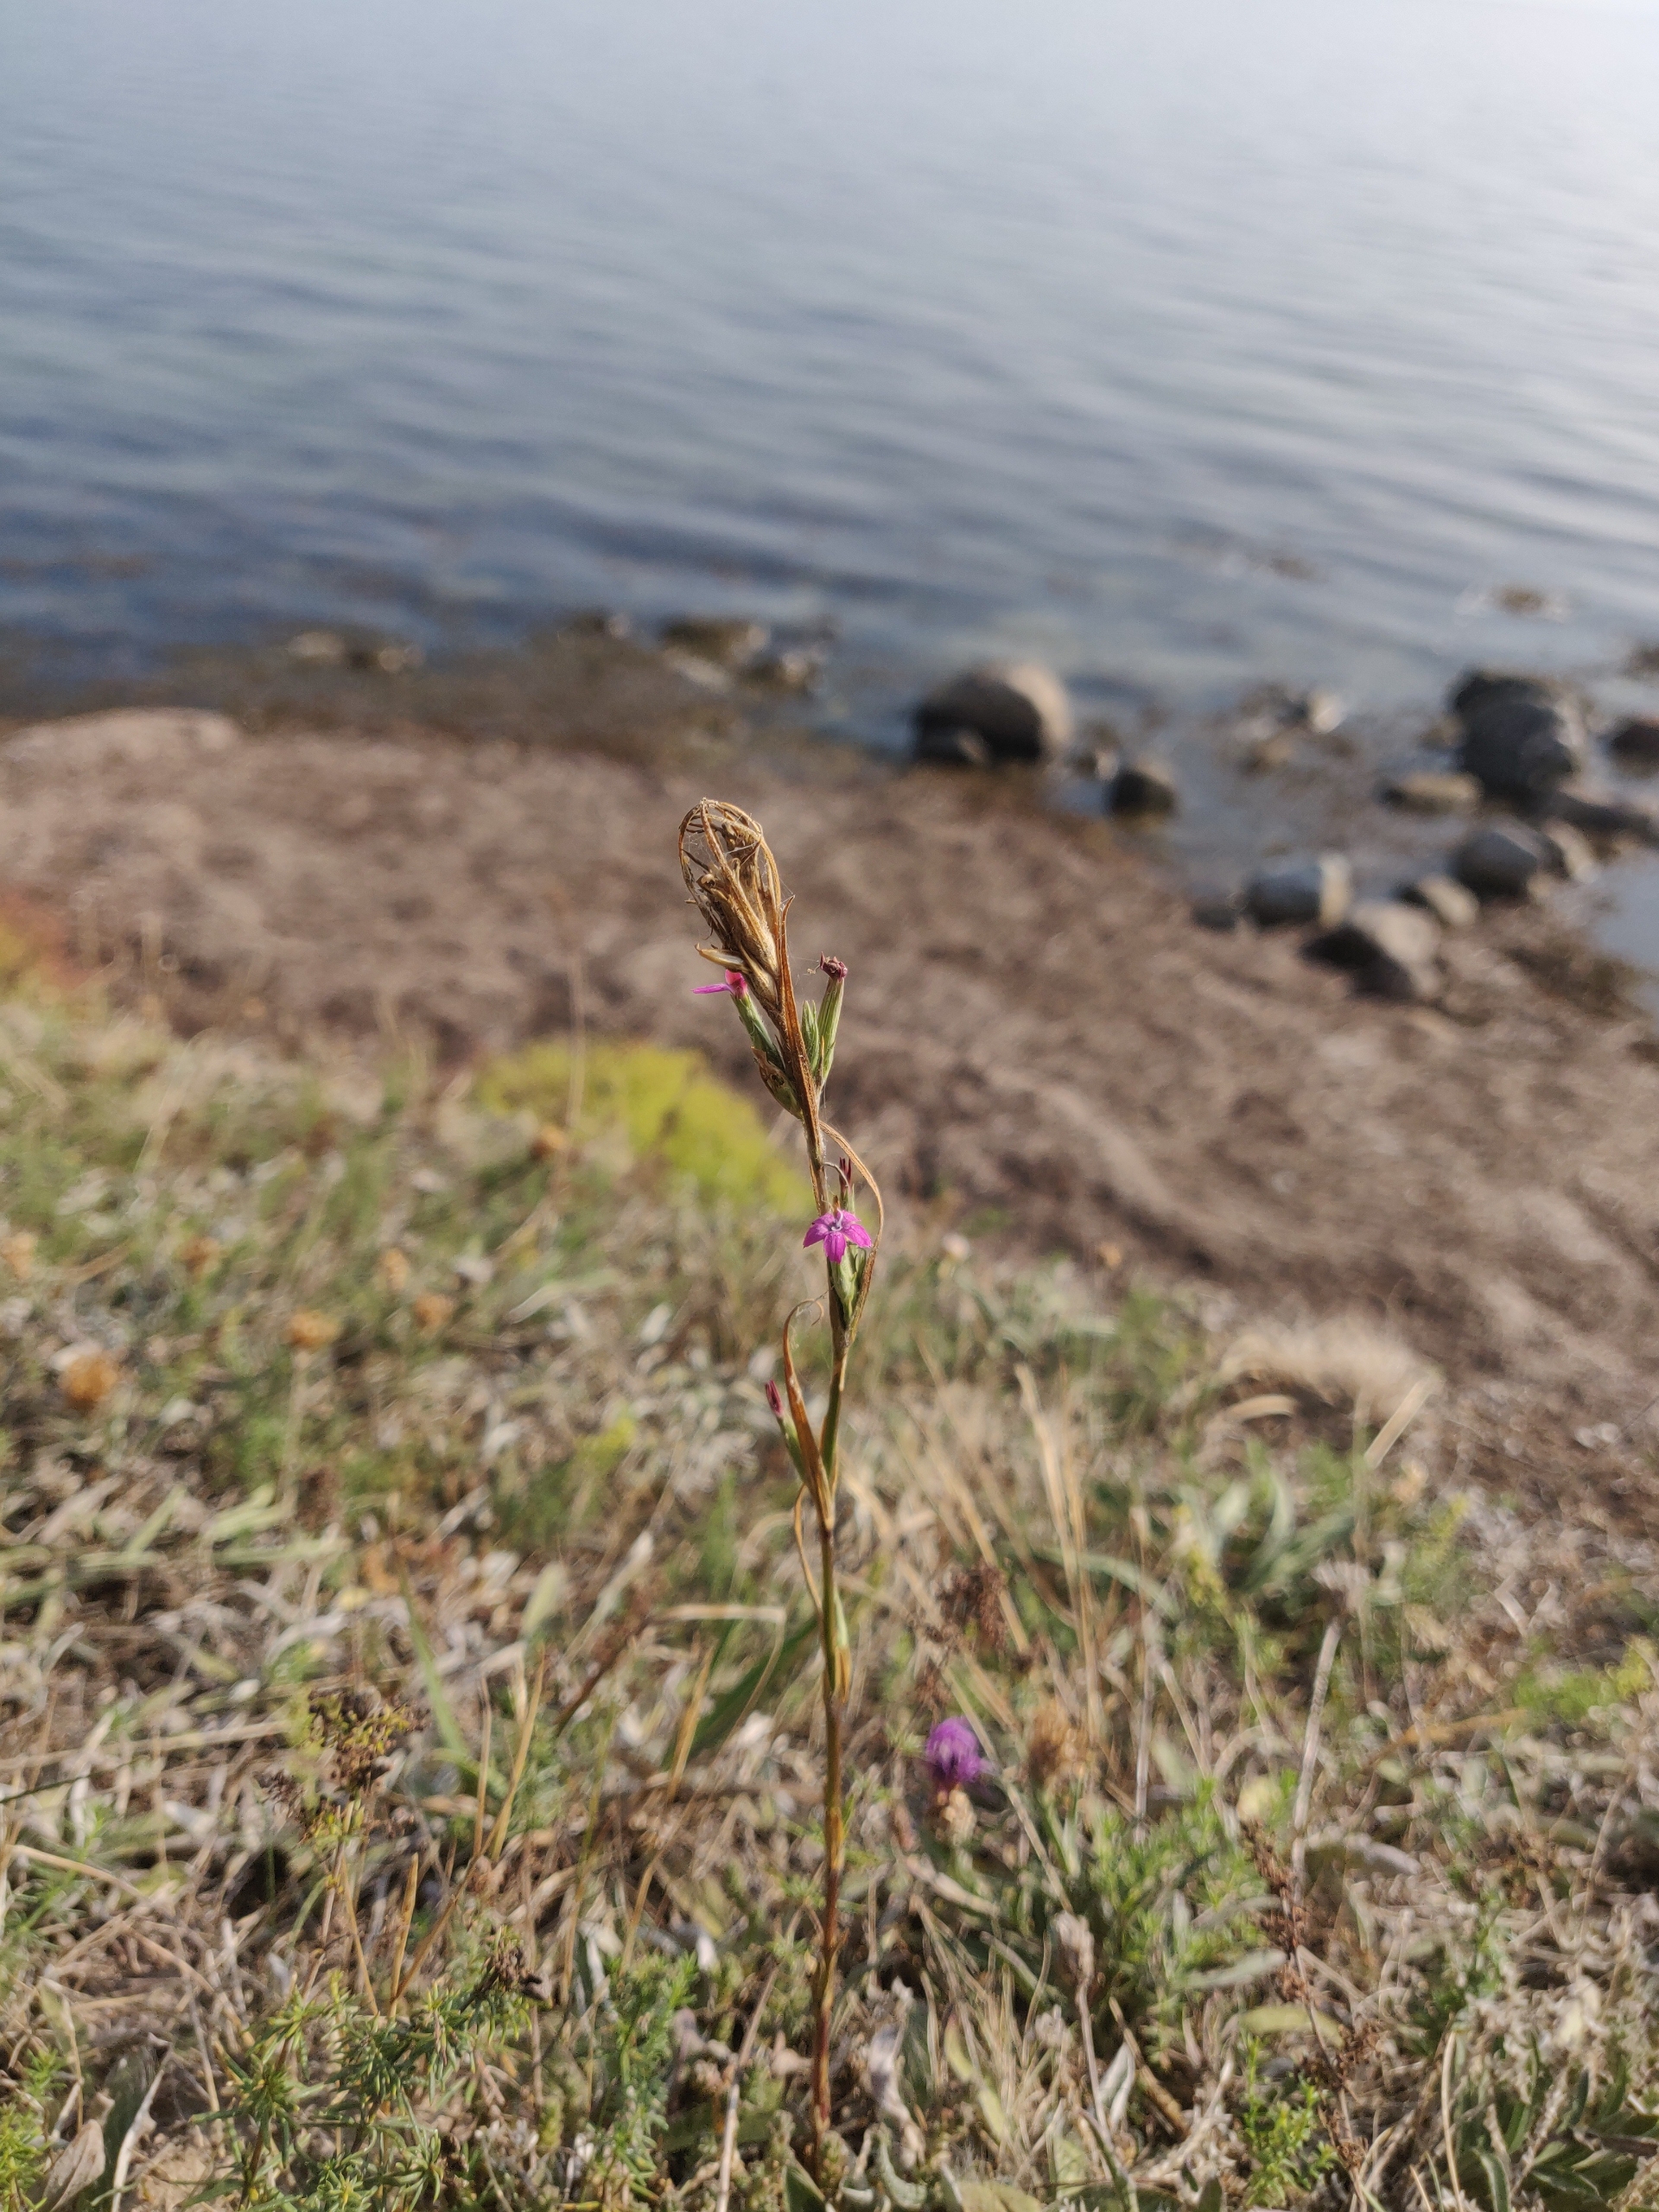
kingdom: Plantae
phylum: Tracheophyta
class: Magnoliopsida
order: Caryophyllales
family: Caryophyllaceae
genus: Dianthus
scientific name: Dianthus armeria
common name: Kost-nellike
